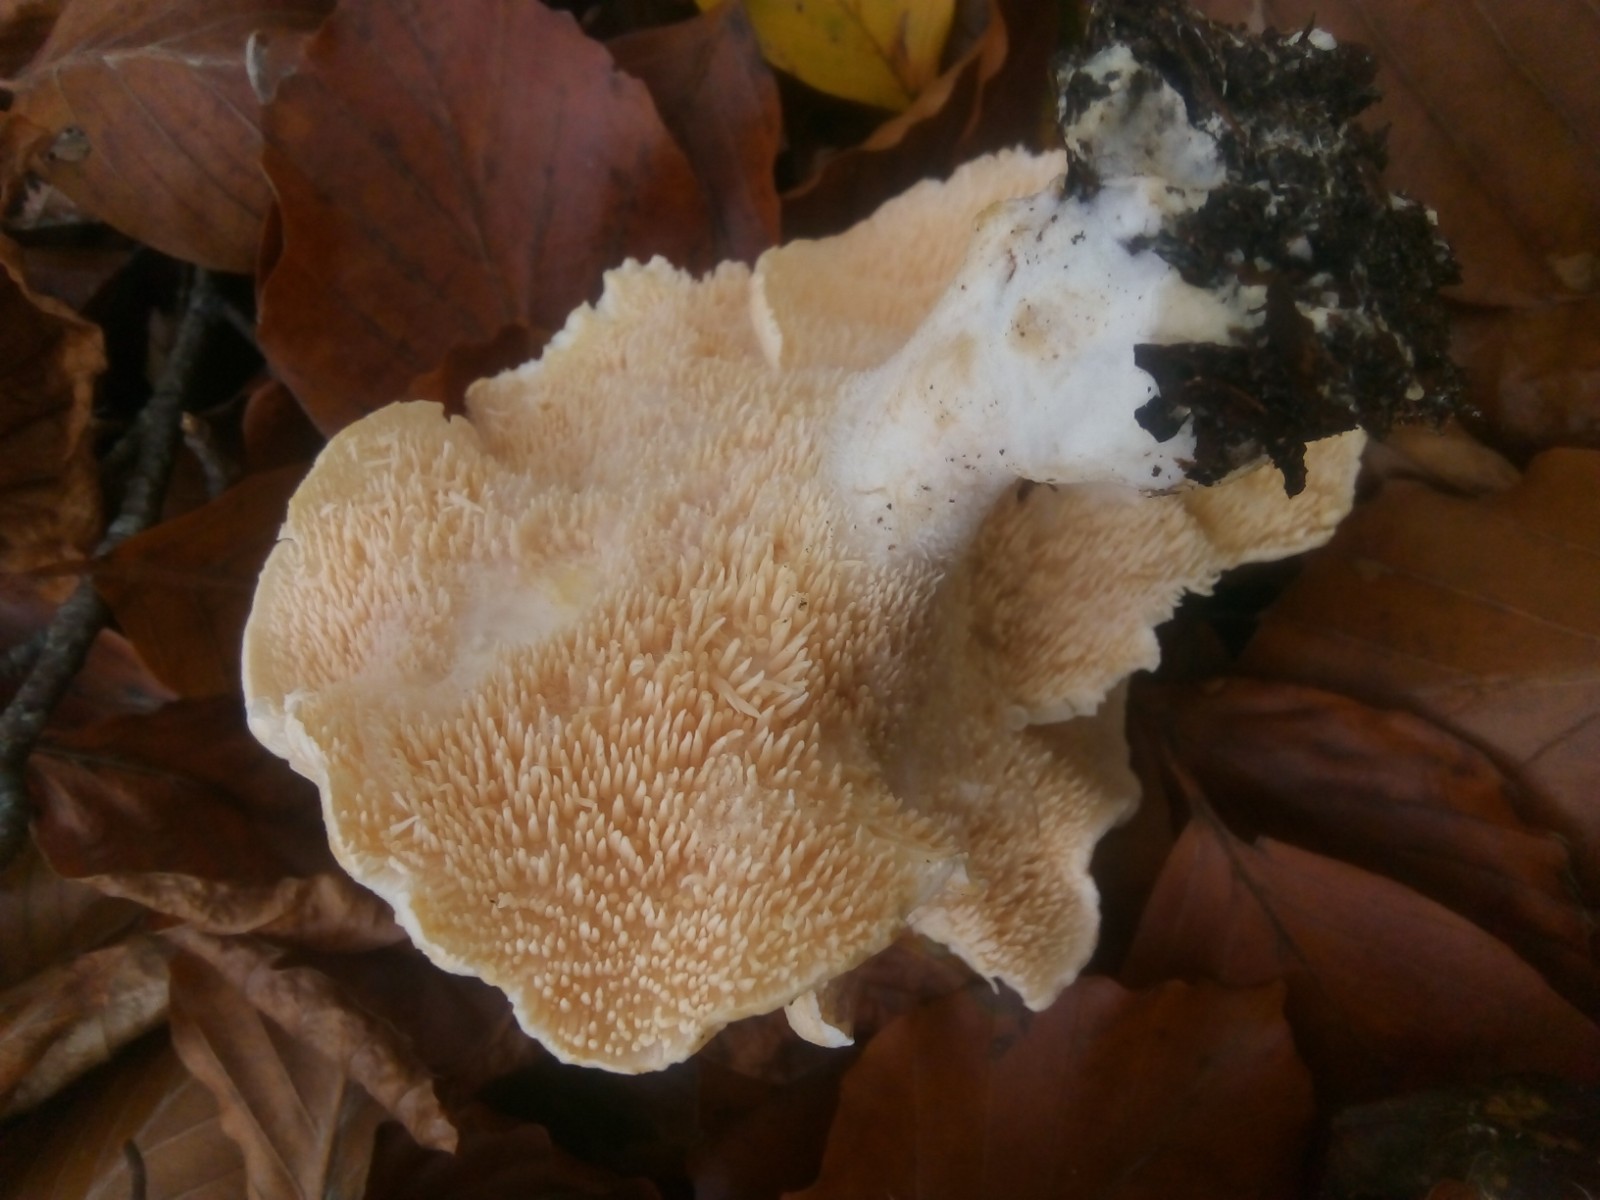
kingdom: Fungi
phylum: Basidiomycota
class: Agaricomycetes
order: Cantharellales
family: Hydnaceae
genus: Hydnum
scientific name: Hydnum repandum
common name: almindelig pigsvamp
